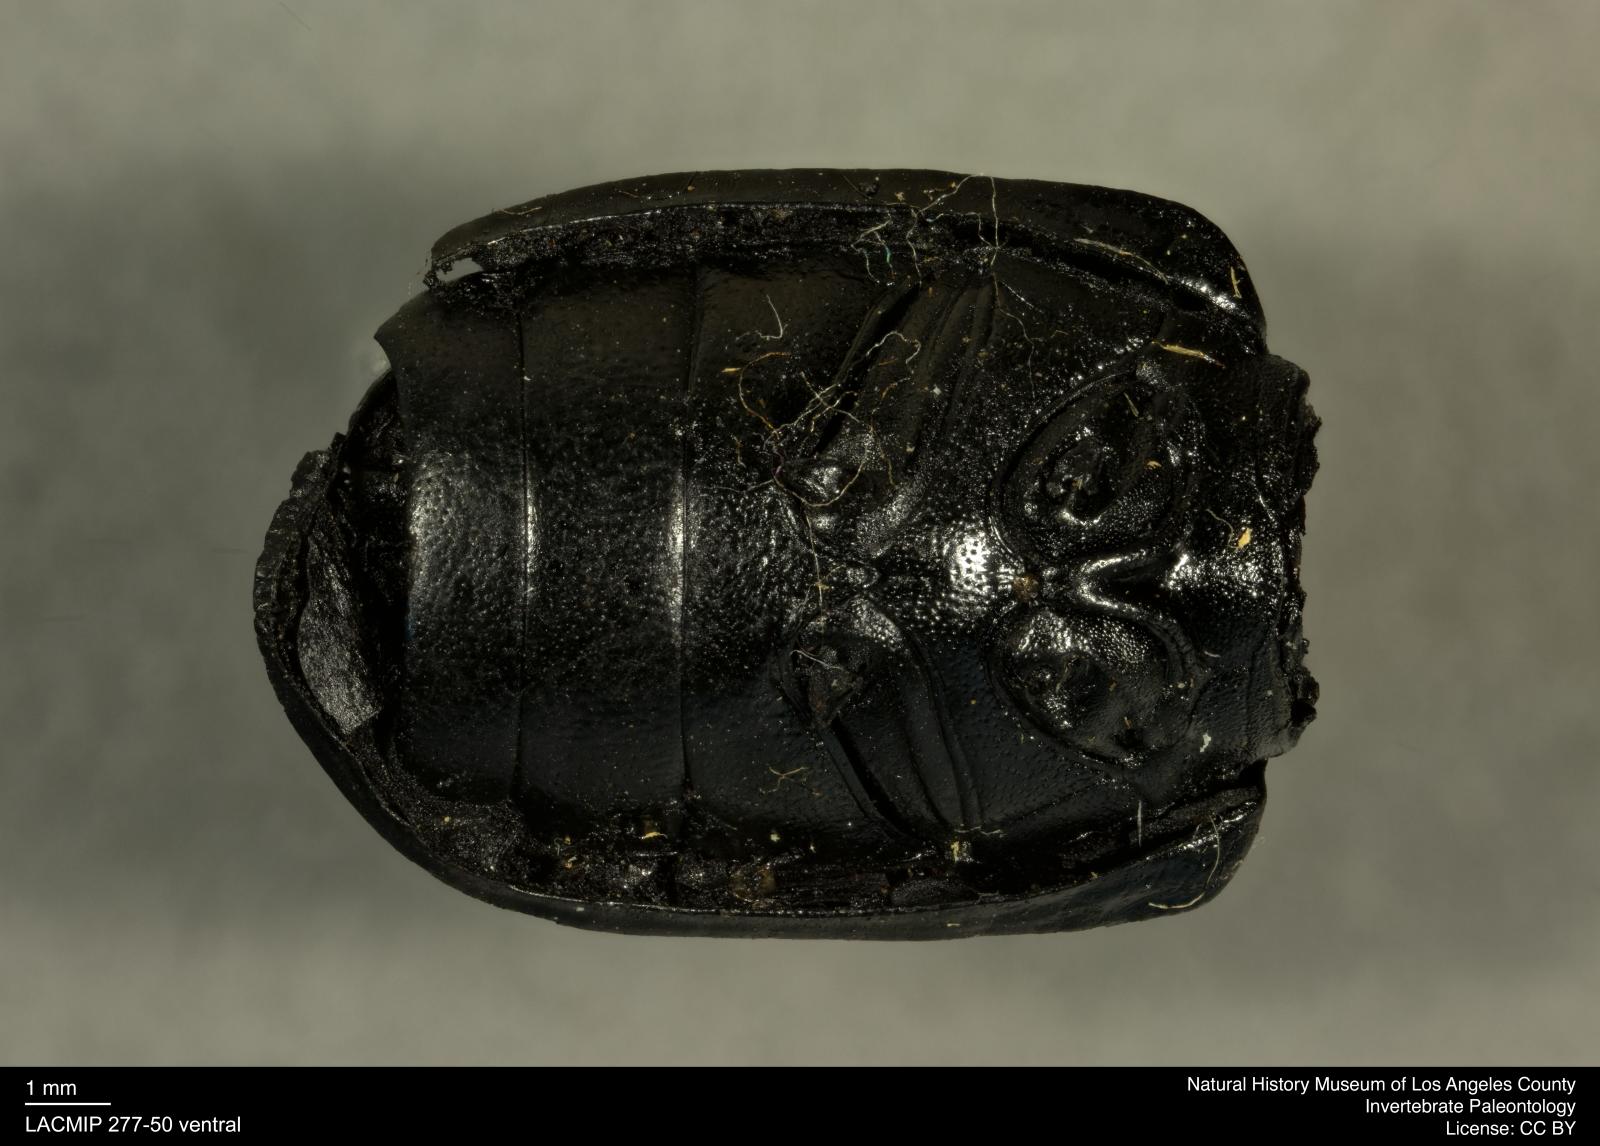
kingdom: Animalia
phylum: Arthropoda
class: Insecta
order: Coleoptera
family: Tenebrionidae
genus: Coniontis
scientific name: Coniontis abdominalis
